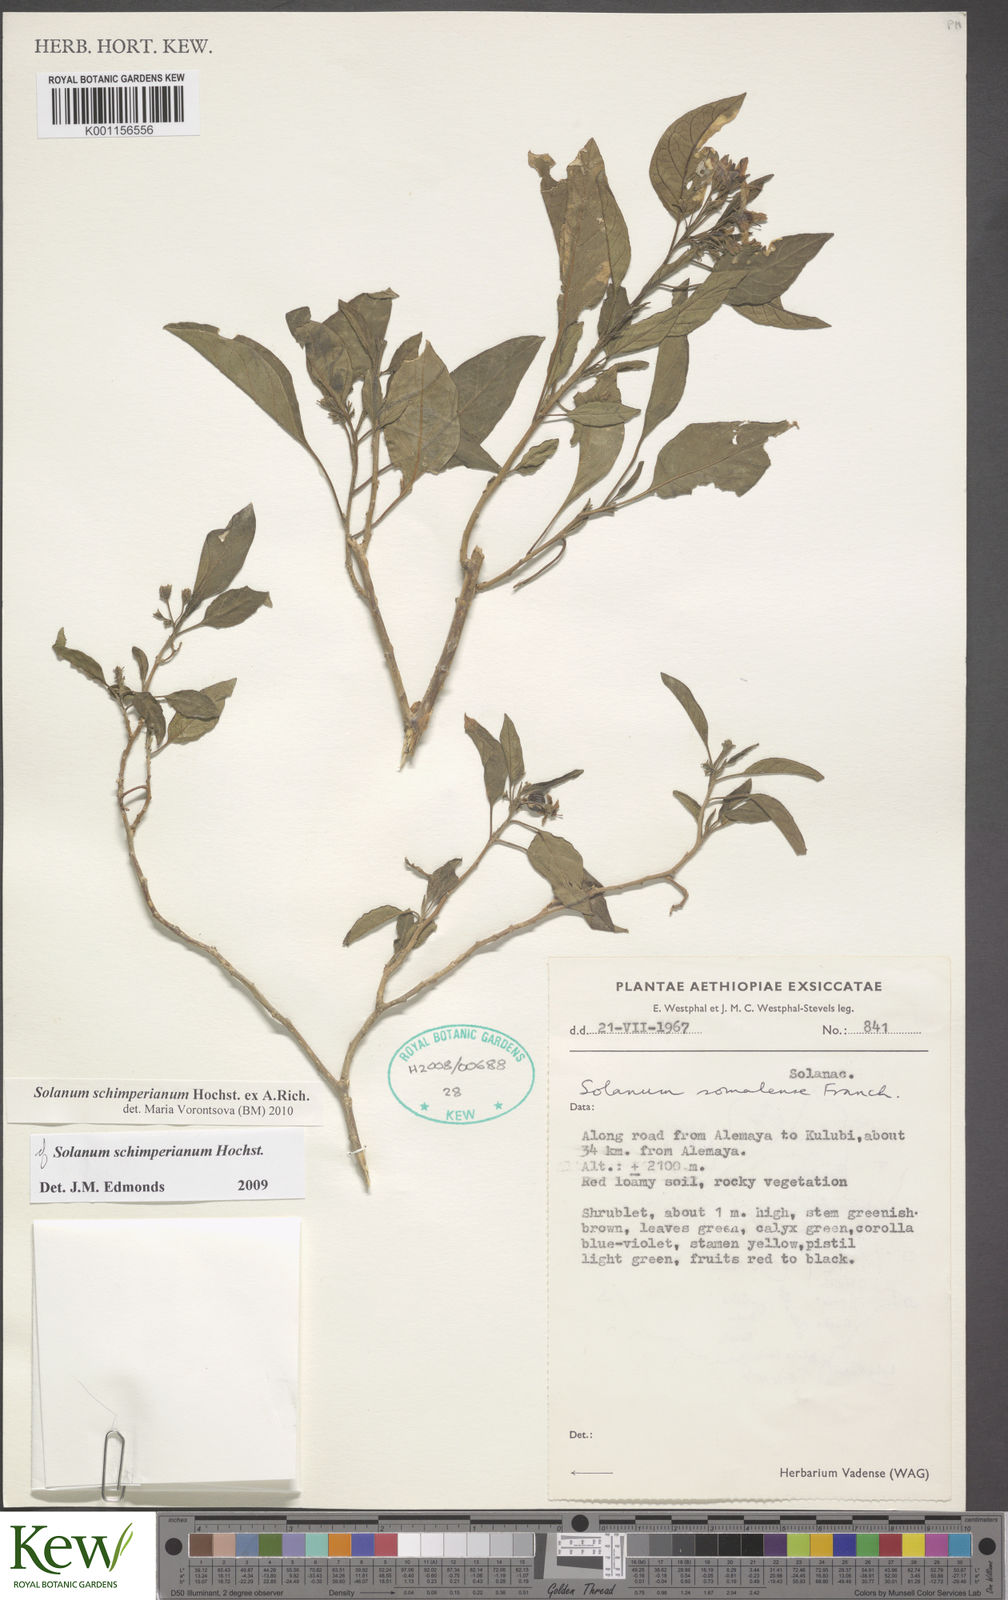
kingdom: Plantae
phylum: Tracheophyta
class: Magnoliopsida
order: Solanales
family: Solanaceae
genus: Solanum
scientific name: Solanum
